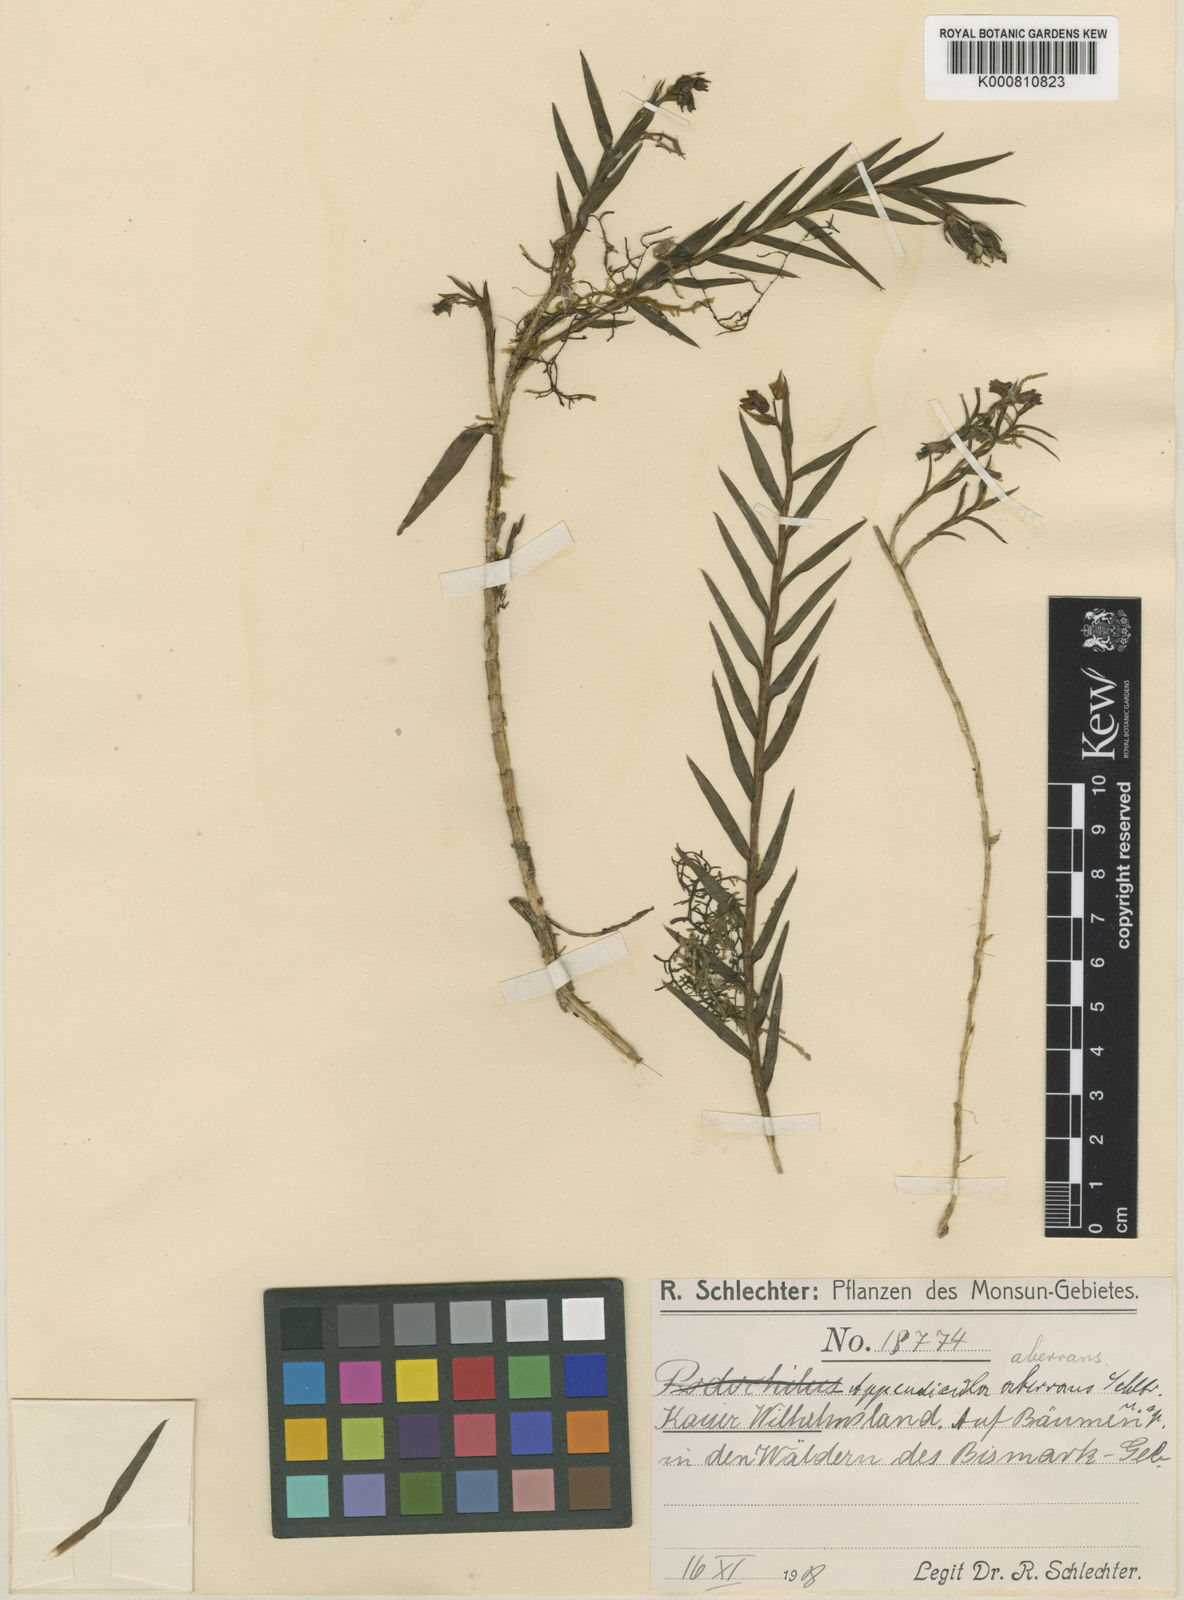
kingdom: Plantae
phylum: Tracheophyta
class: Liliopsida
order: Asparagales
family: Orchidaceae
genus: Appendicula
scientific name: Appendicula aberrans
